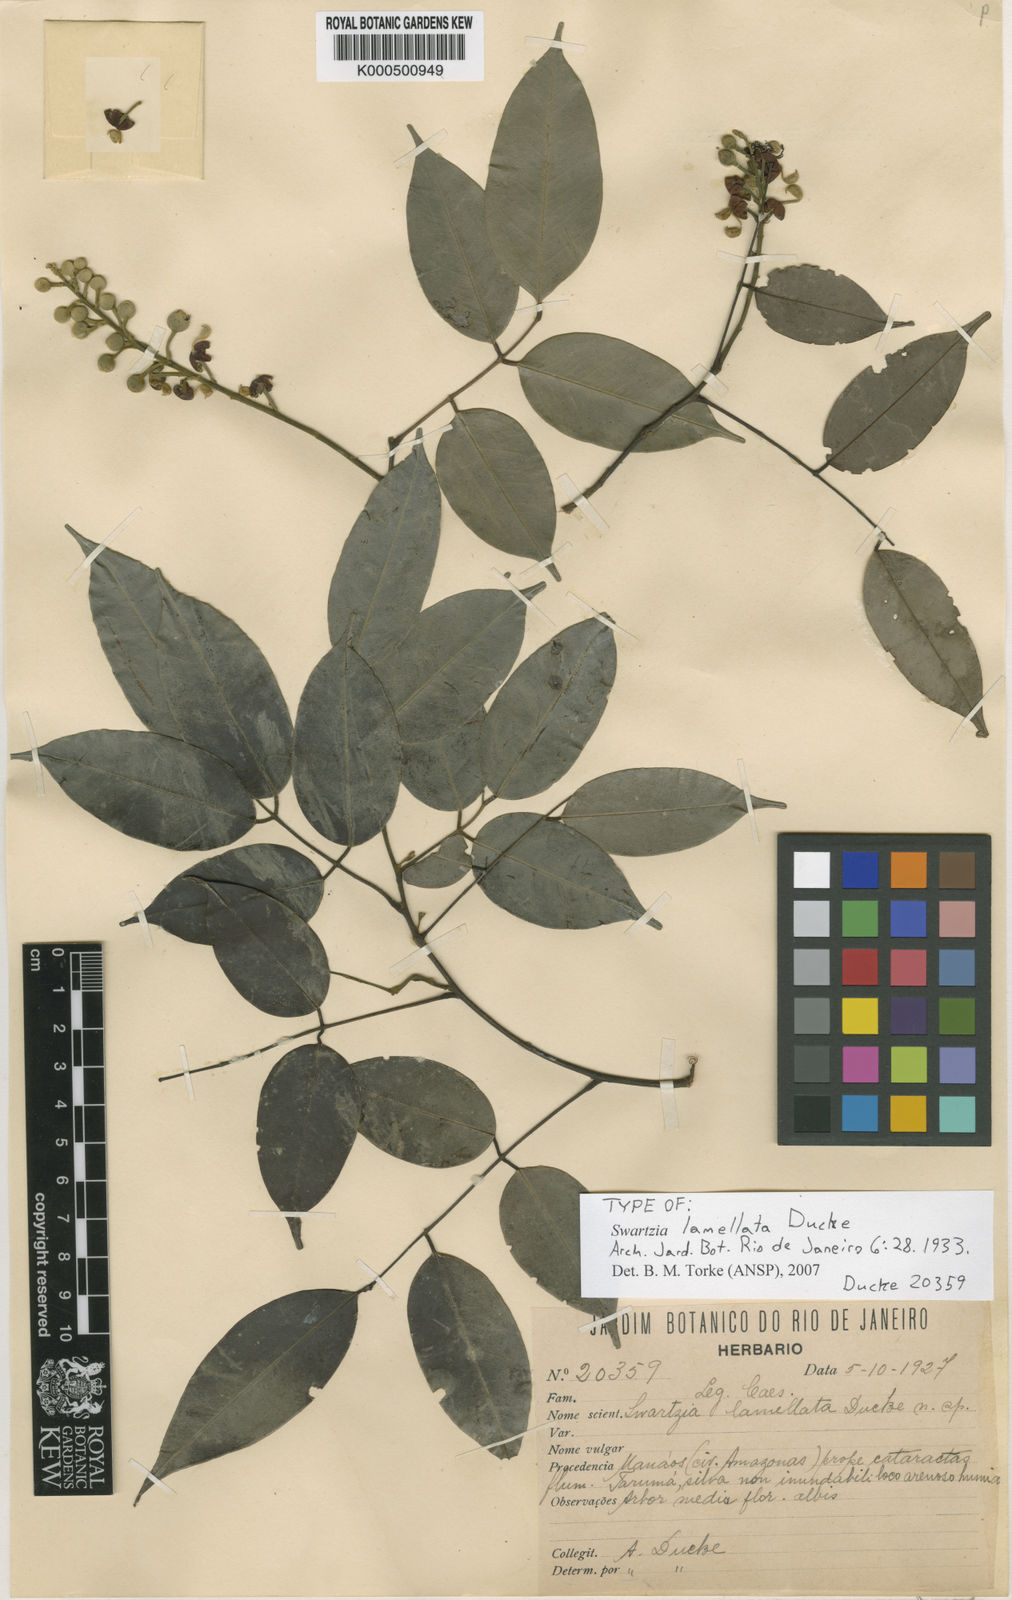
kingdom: Plantae
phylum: Tracheophyta
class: Magnoliopsida
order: Fabales
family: Fabaceae
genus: Swartzia
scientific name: Swartzia lamellata
